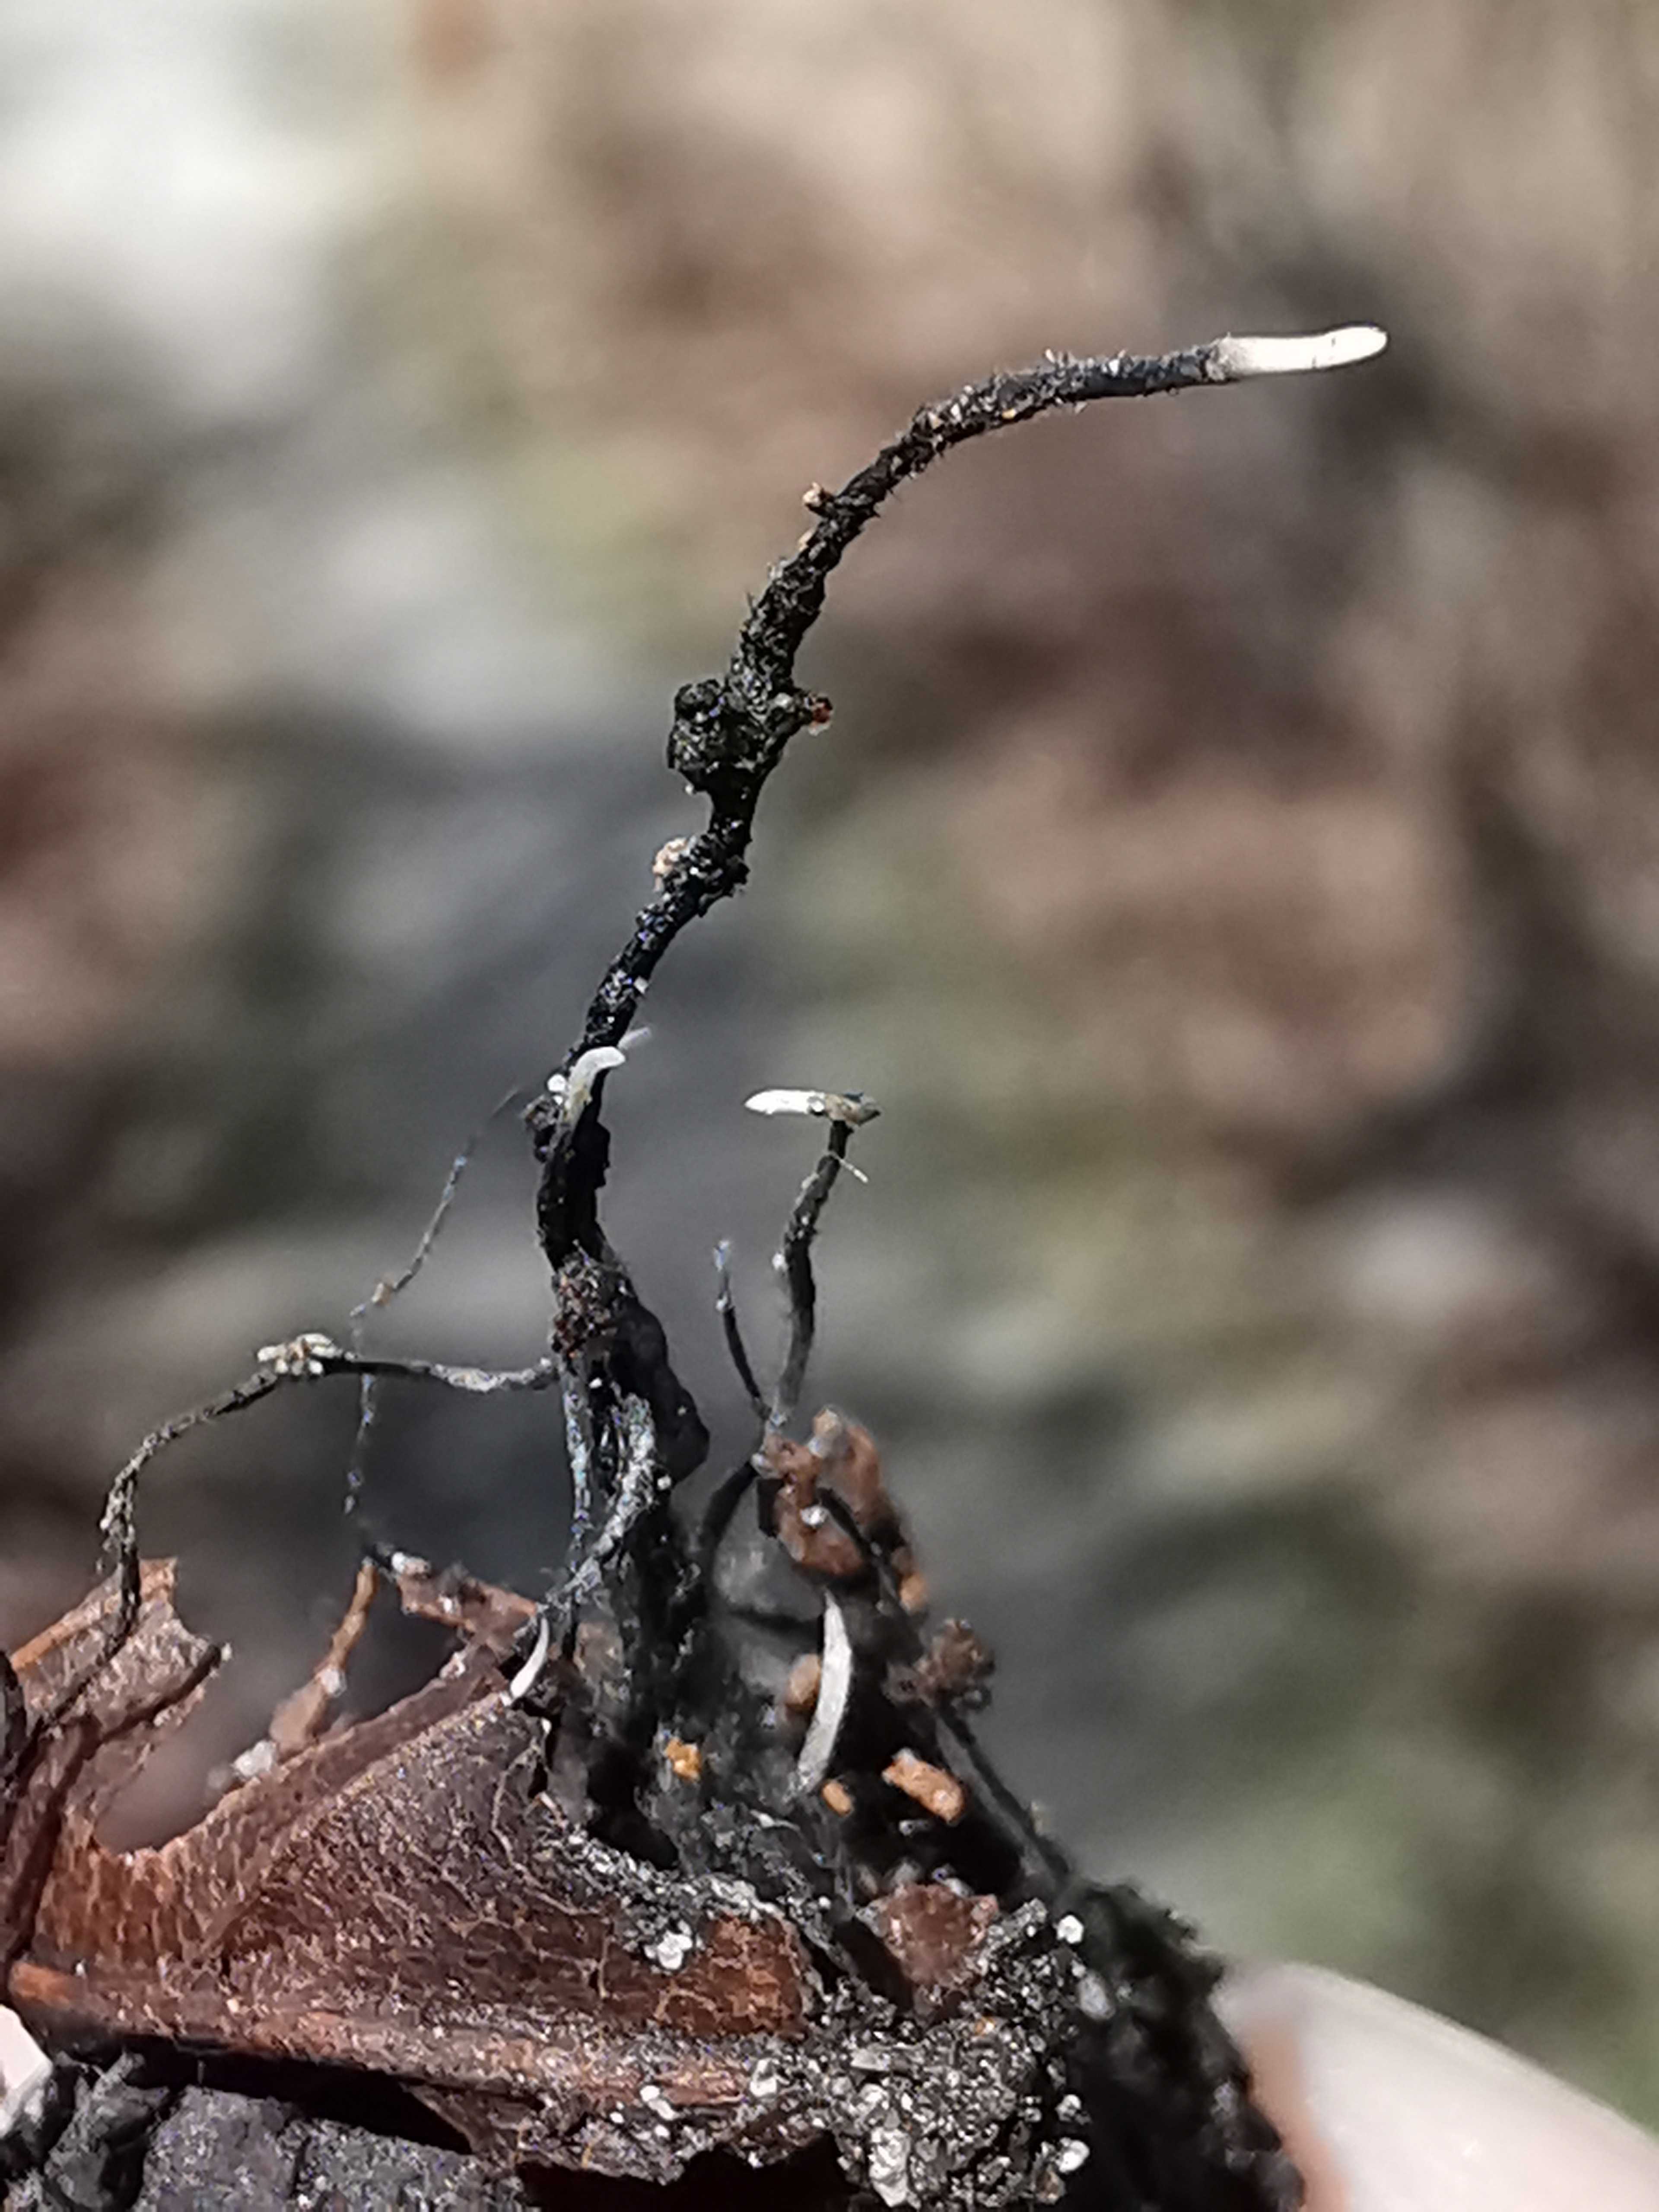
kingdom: Fungi
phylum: Ascomycota
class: Sordariomycetes
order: Xylariales
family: Xylariaceae
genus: Xylaria
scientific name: Xylaria carpophila
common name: bogskål-stødsvamp
